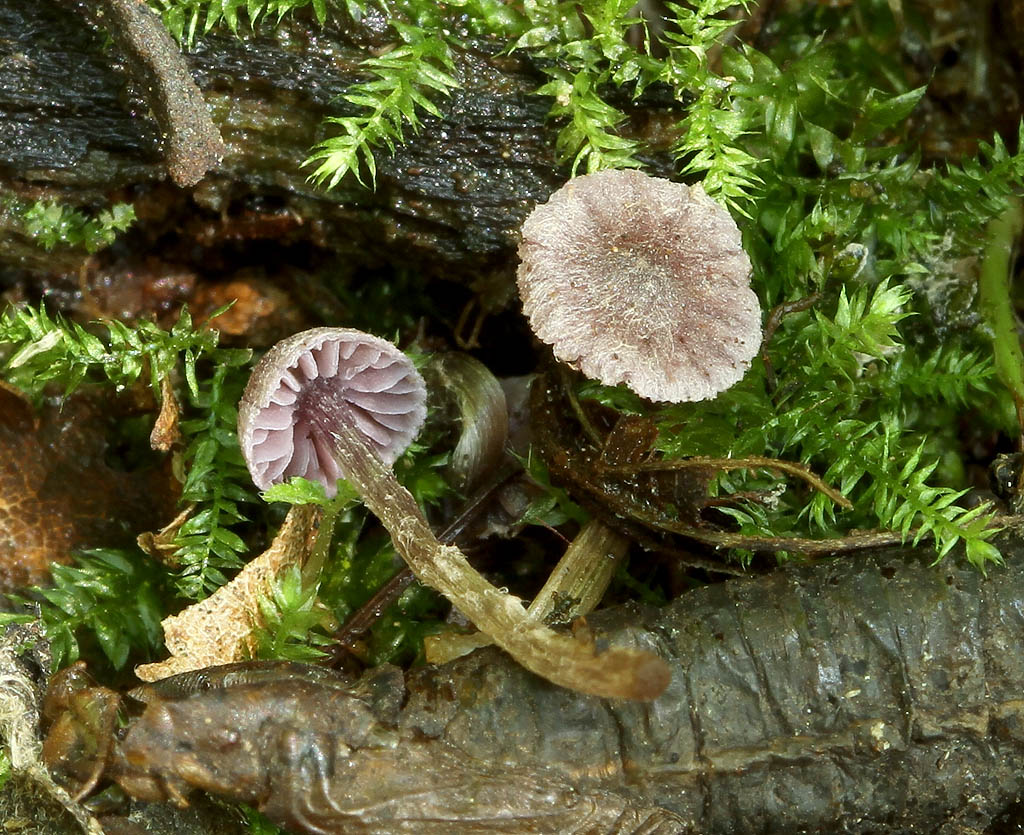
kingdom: Fungi
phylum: Basidiomycota
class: Agaricomycetes
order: Agaricales
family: Cortinariaceae
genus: Cortinarius
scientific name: Cortinarius bibulus
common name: smuk slørhat
